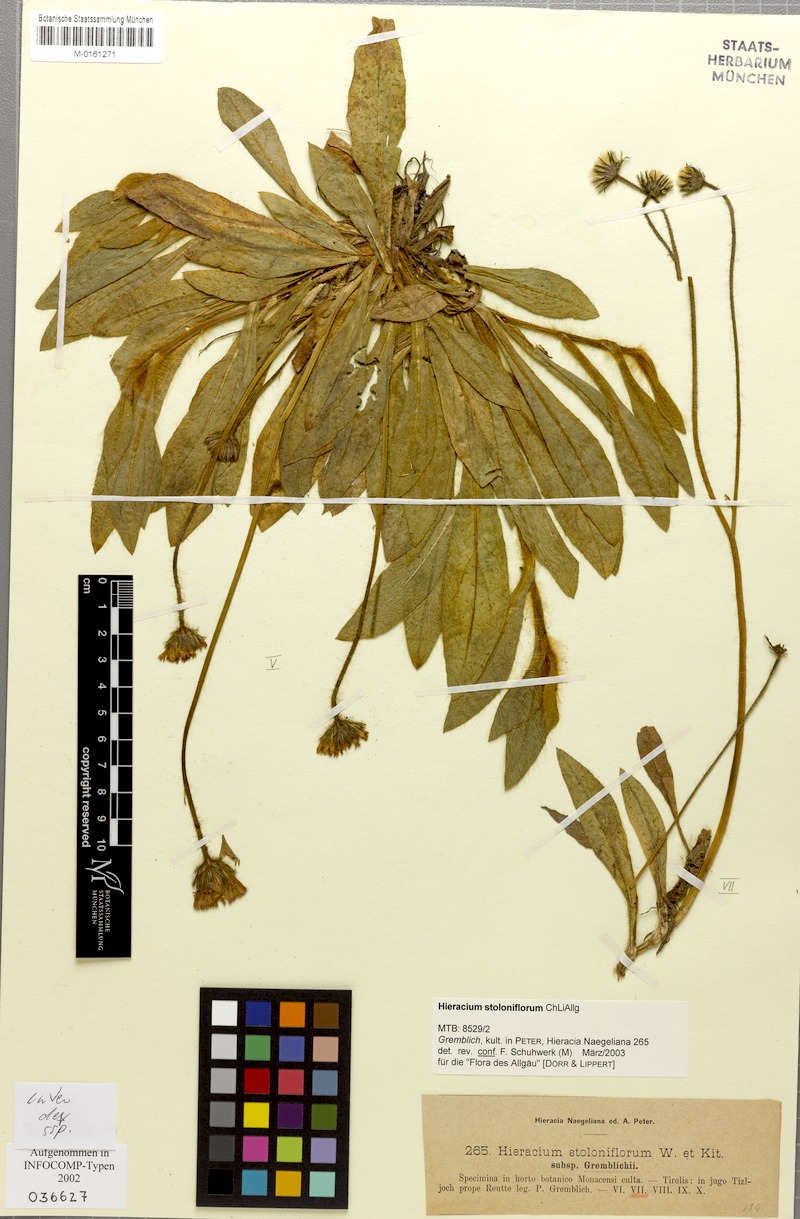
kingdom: Plantae
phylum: Tracheophyta
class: Magnoliopsida
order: Asterales
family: Asteraceae
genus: Pilosella
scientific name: Pilosella stoloniflora
